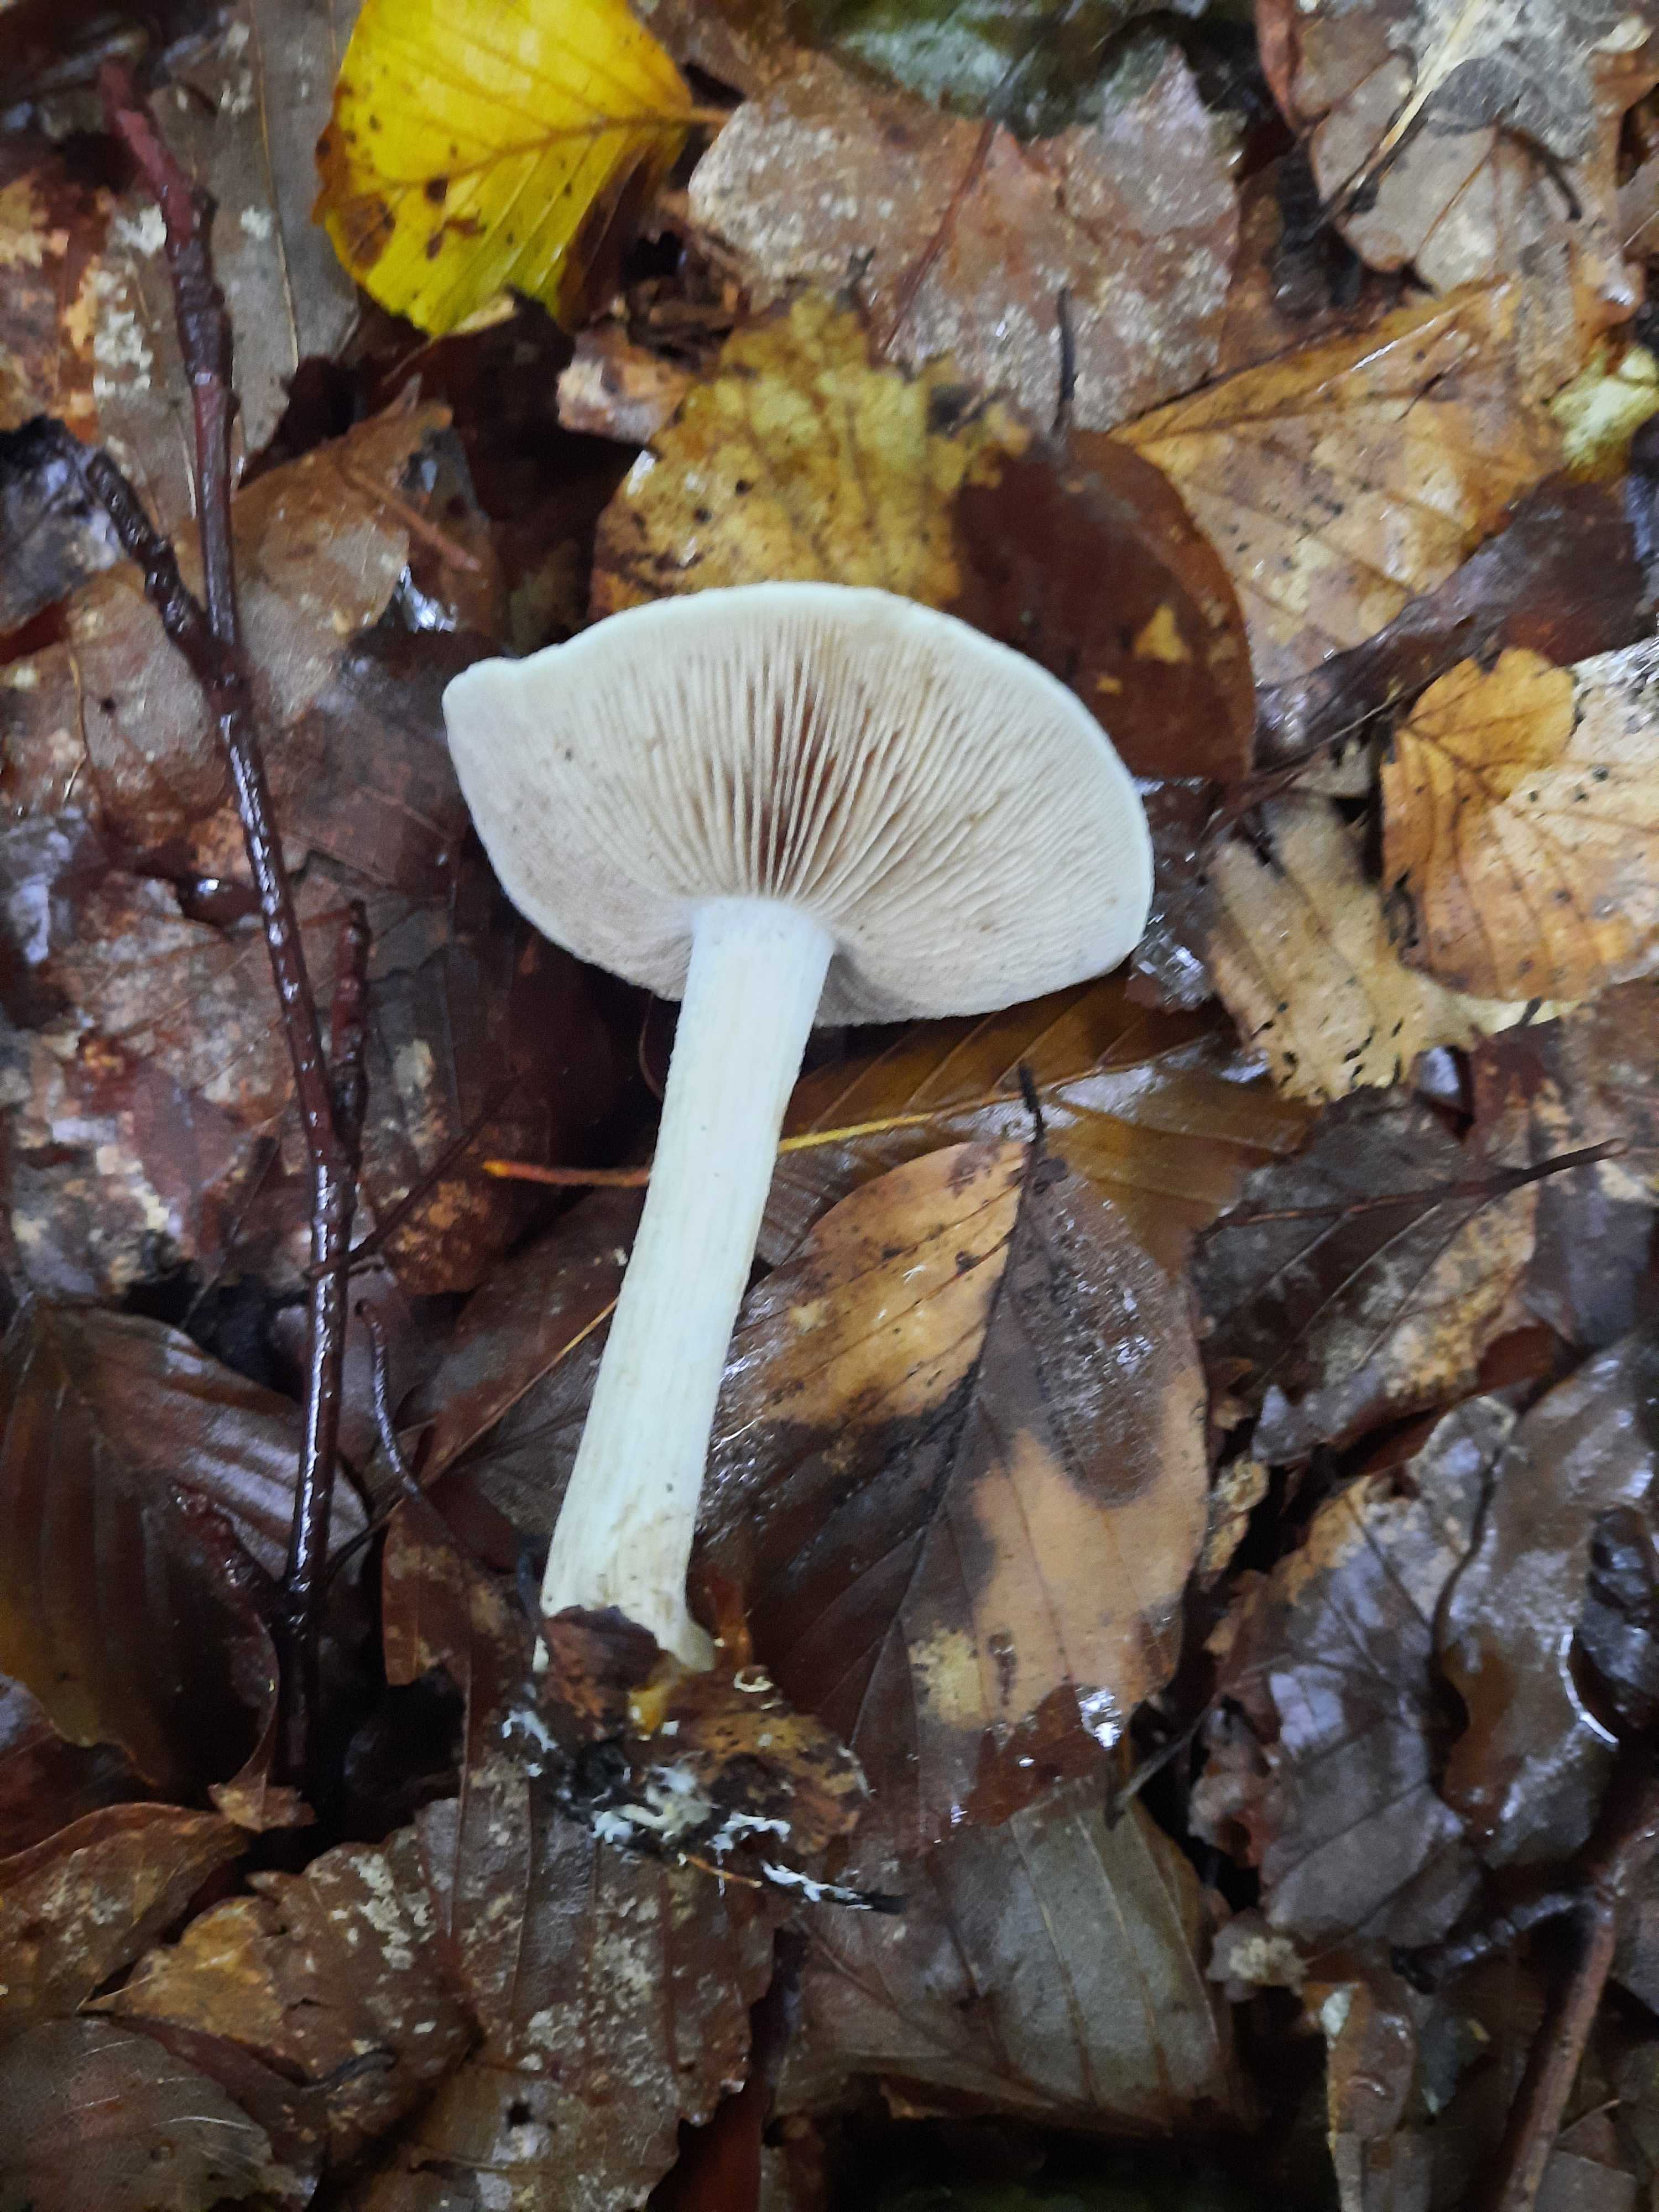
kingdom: Fungi
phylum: Basidiomycota
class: Agaricomycetes
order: Agaricales
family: Hymenogastraceae
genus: Hebeloma
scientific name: Hebeloma
